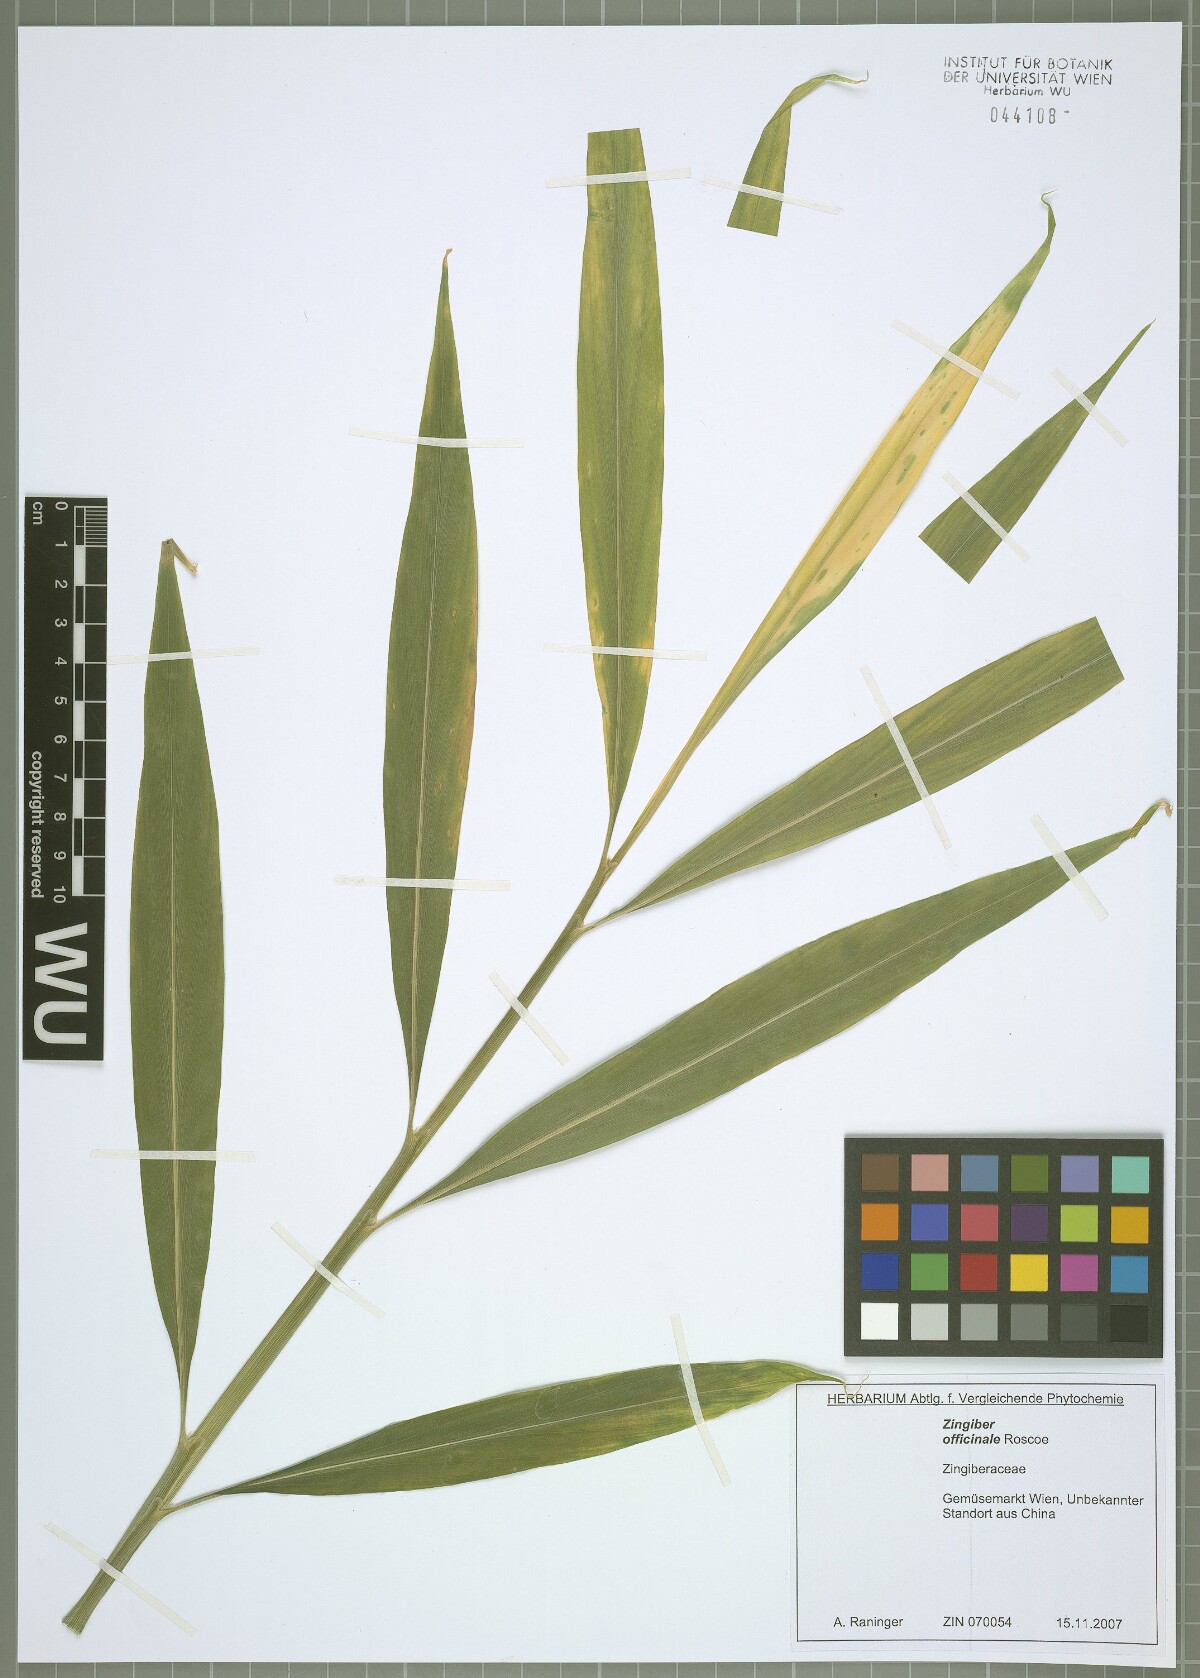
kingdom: Plantae
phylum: Tracheophyta
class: Liliopsida
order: Zingiberales
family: Zingiberaceae
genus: Zingiber
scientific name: Zingiber officinale
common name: Ginger
